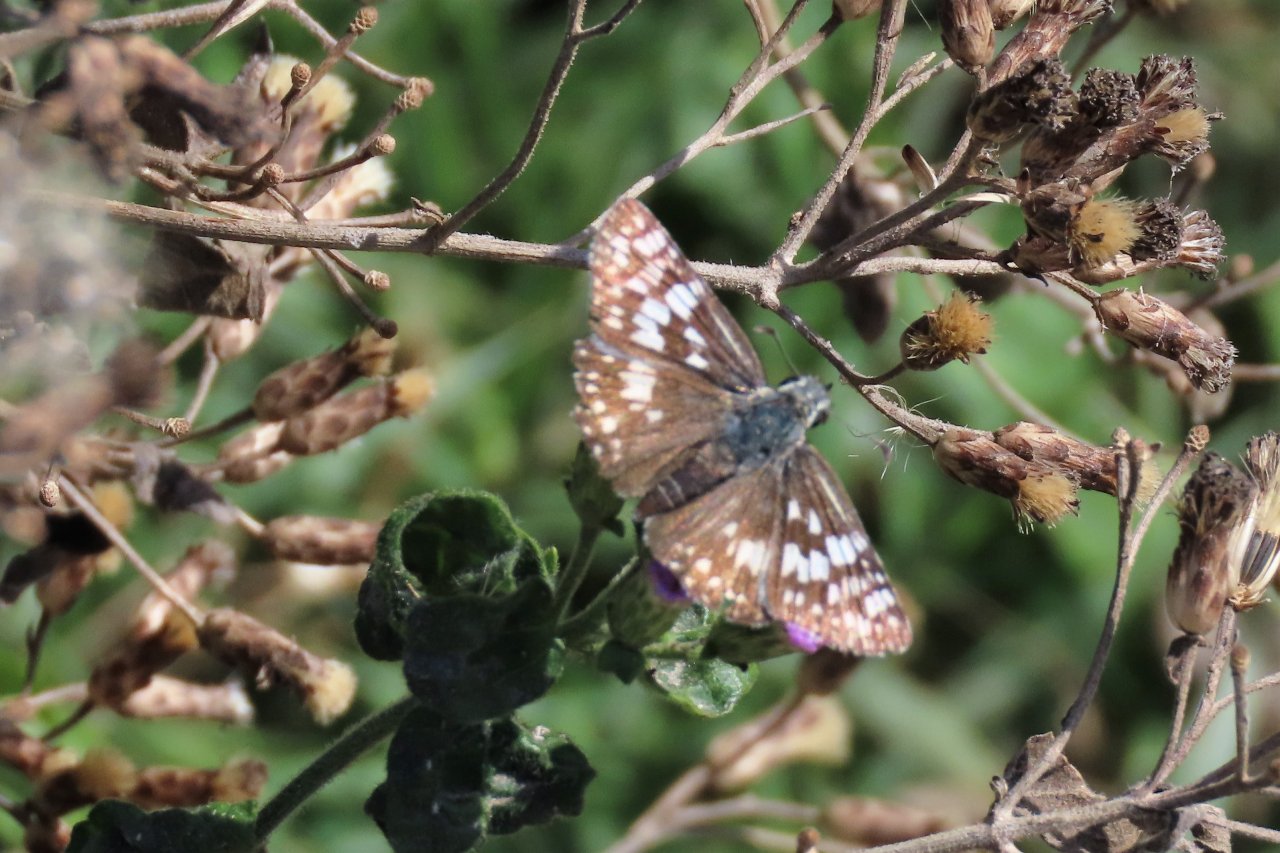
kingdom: Animalia
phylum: Arthropoda
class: Insecta
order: Lepidoptera
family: Hesperiidae
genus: Pyrgus
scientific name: Pyrgus oileus
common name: Tropical Checkered-Skipper
